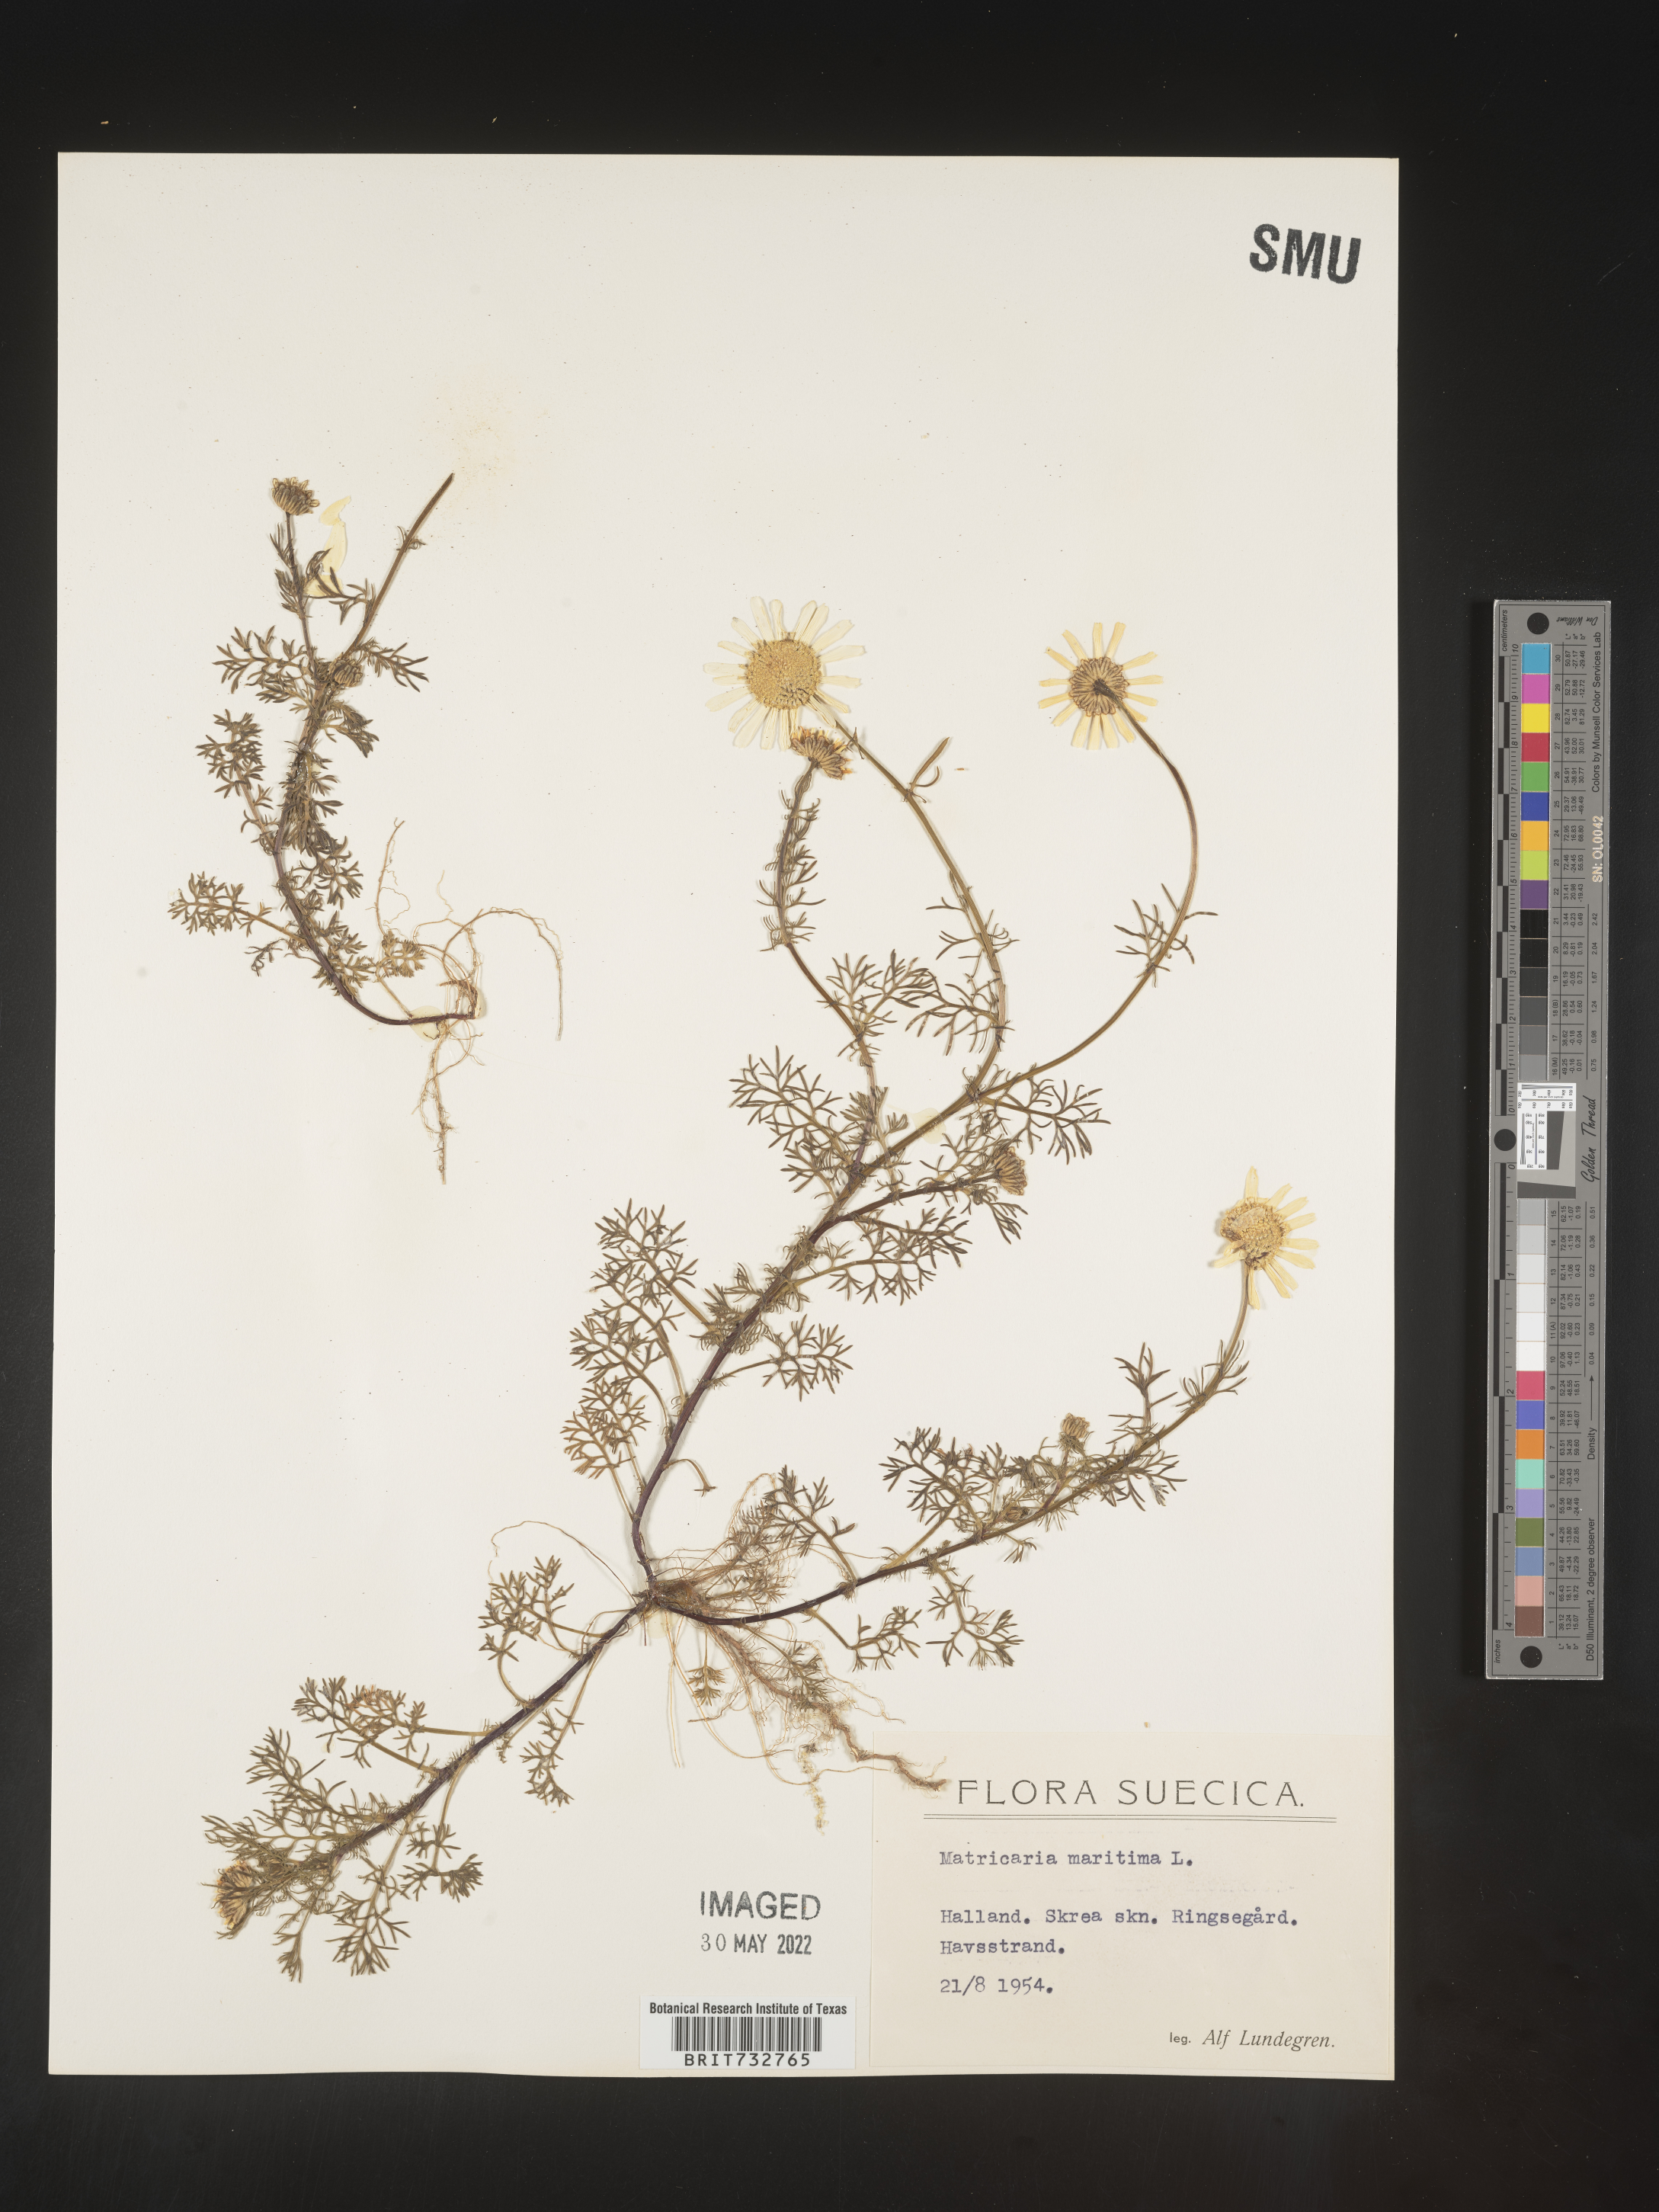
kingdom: Plantae
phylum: Tracheophyta
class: Magnoliopsida
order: Asterales
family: Asteraceae
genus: Matricaria
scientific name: Matricaria
